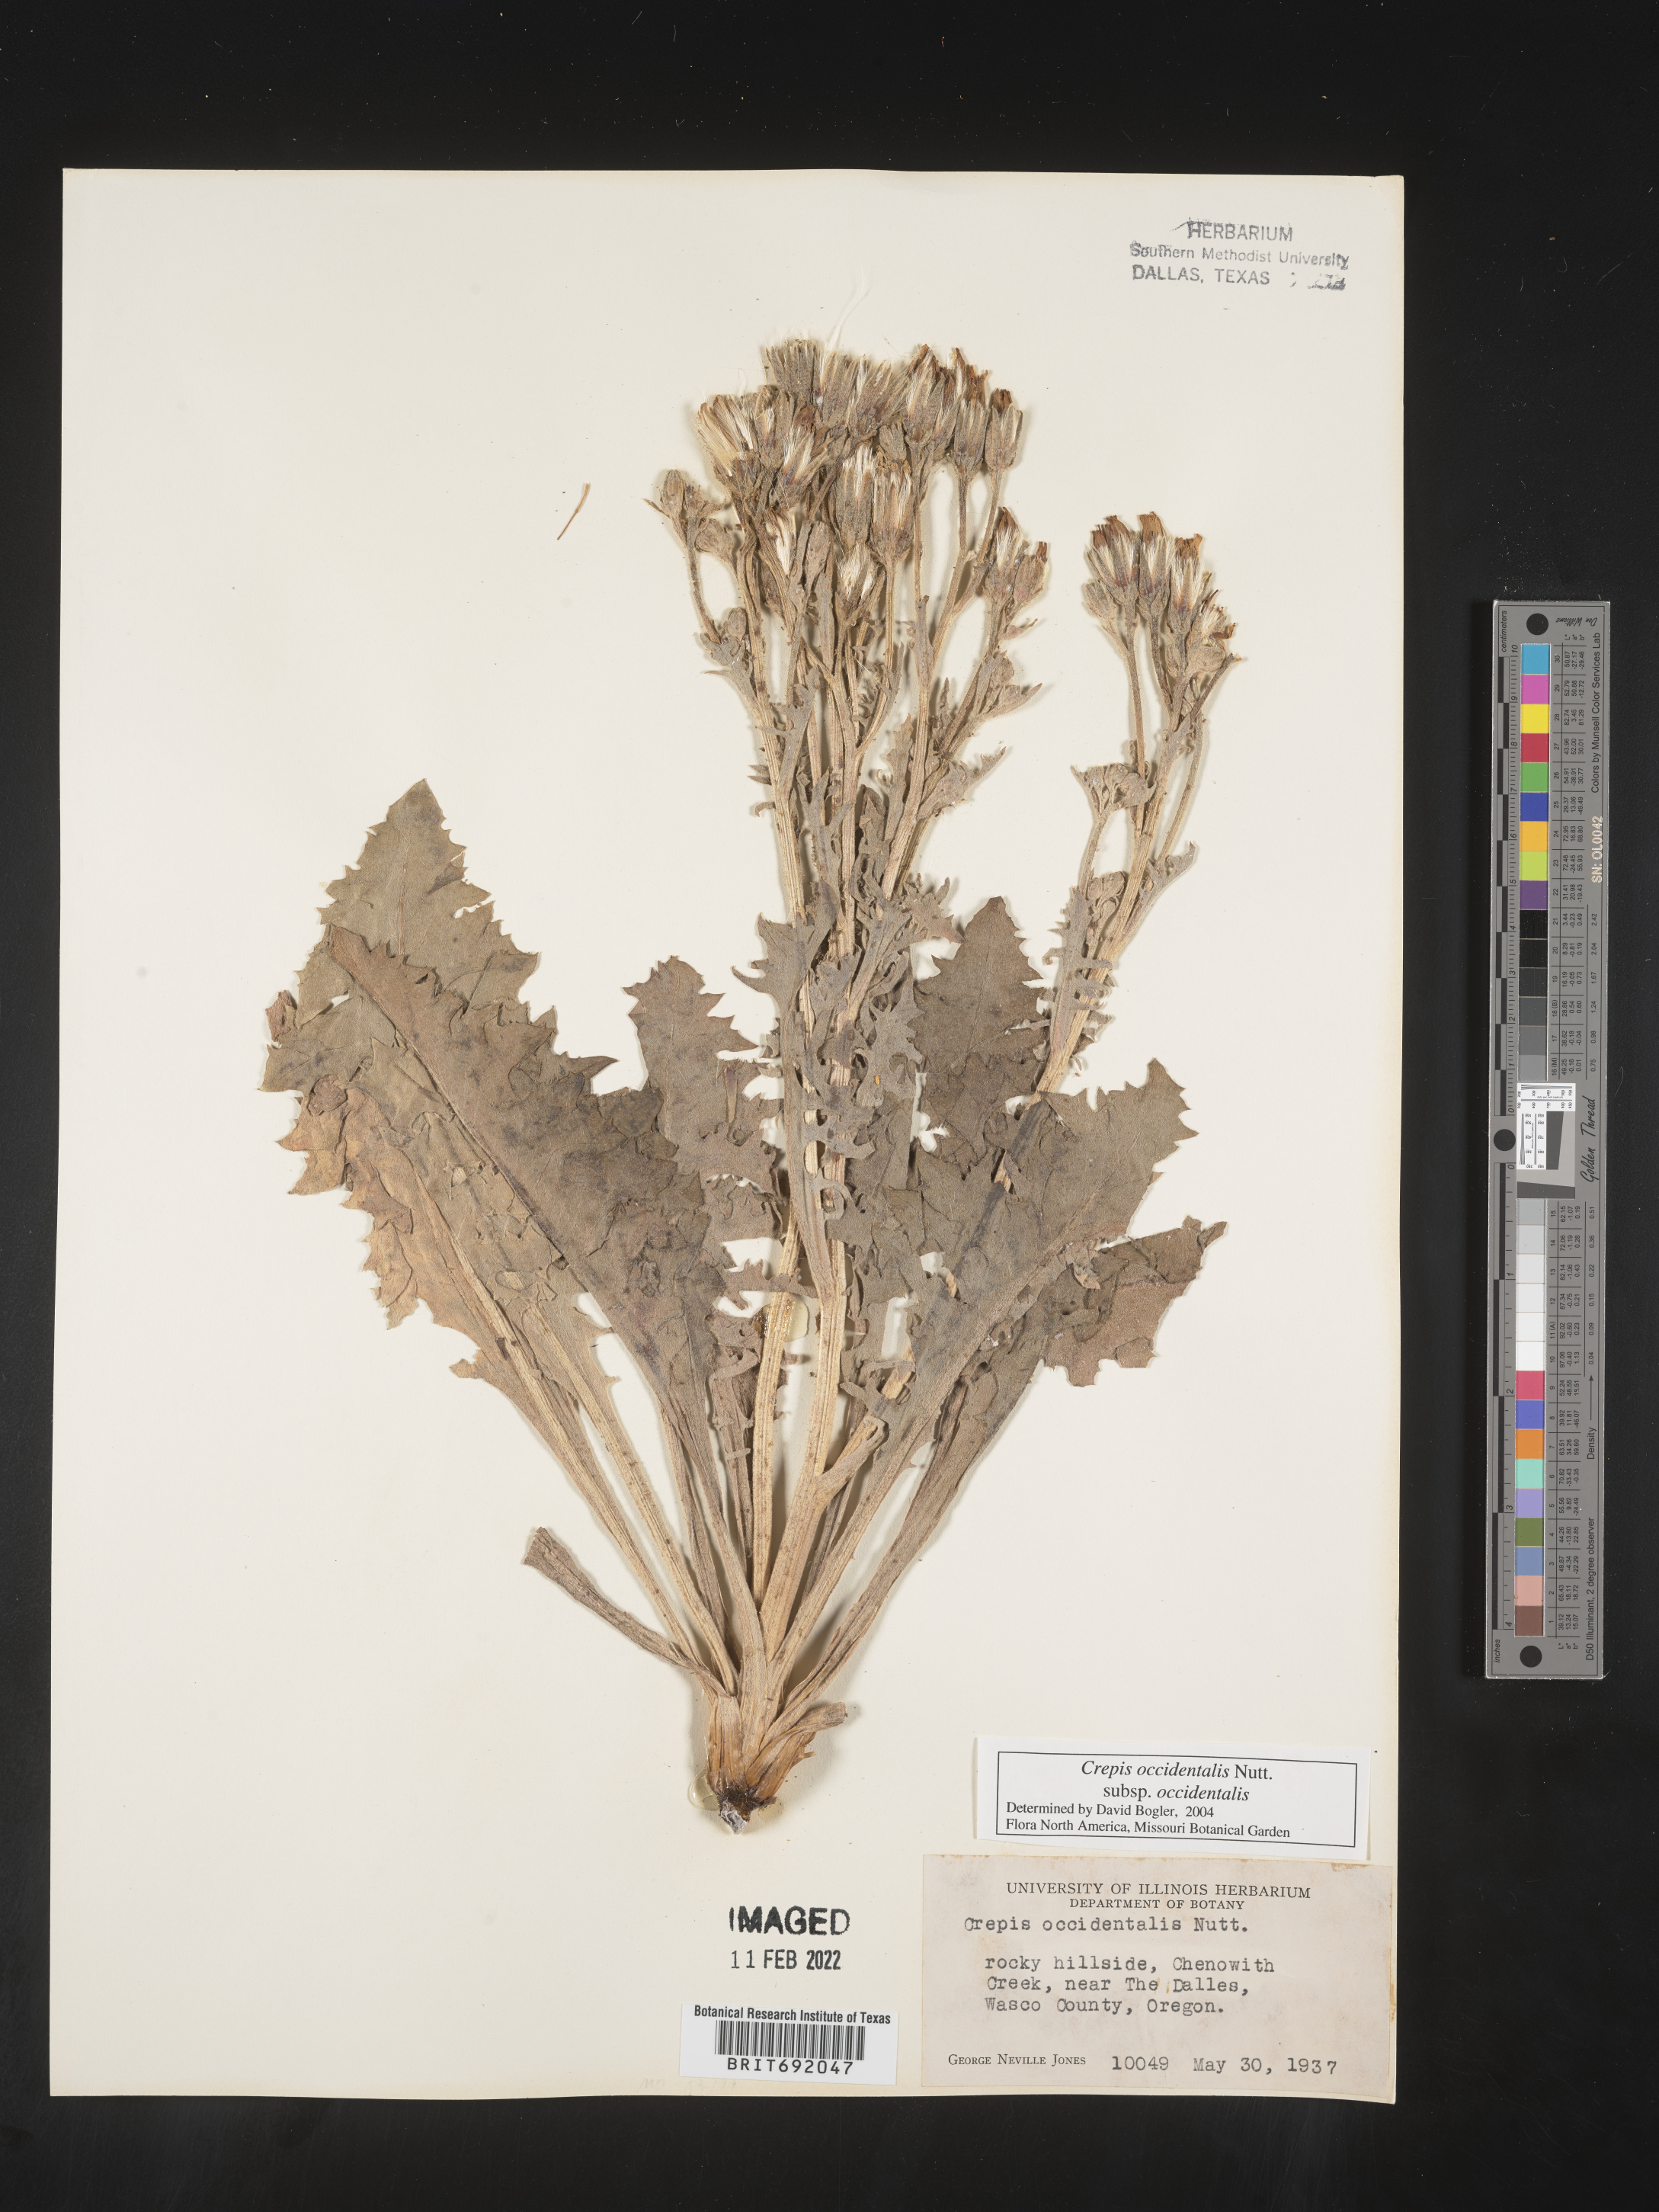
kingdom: Plantae
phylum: Tracheophyta
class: Magnoliopsida
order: Asterales
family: Asteraceae
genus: Crepis
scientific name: Crepis occidentalis
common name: Gray hawk's-beard
